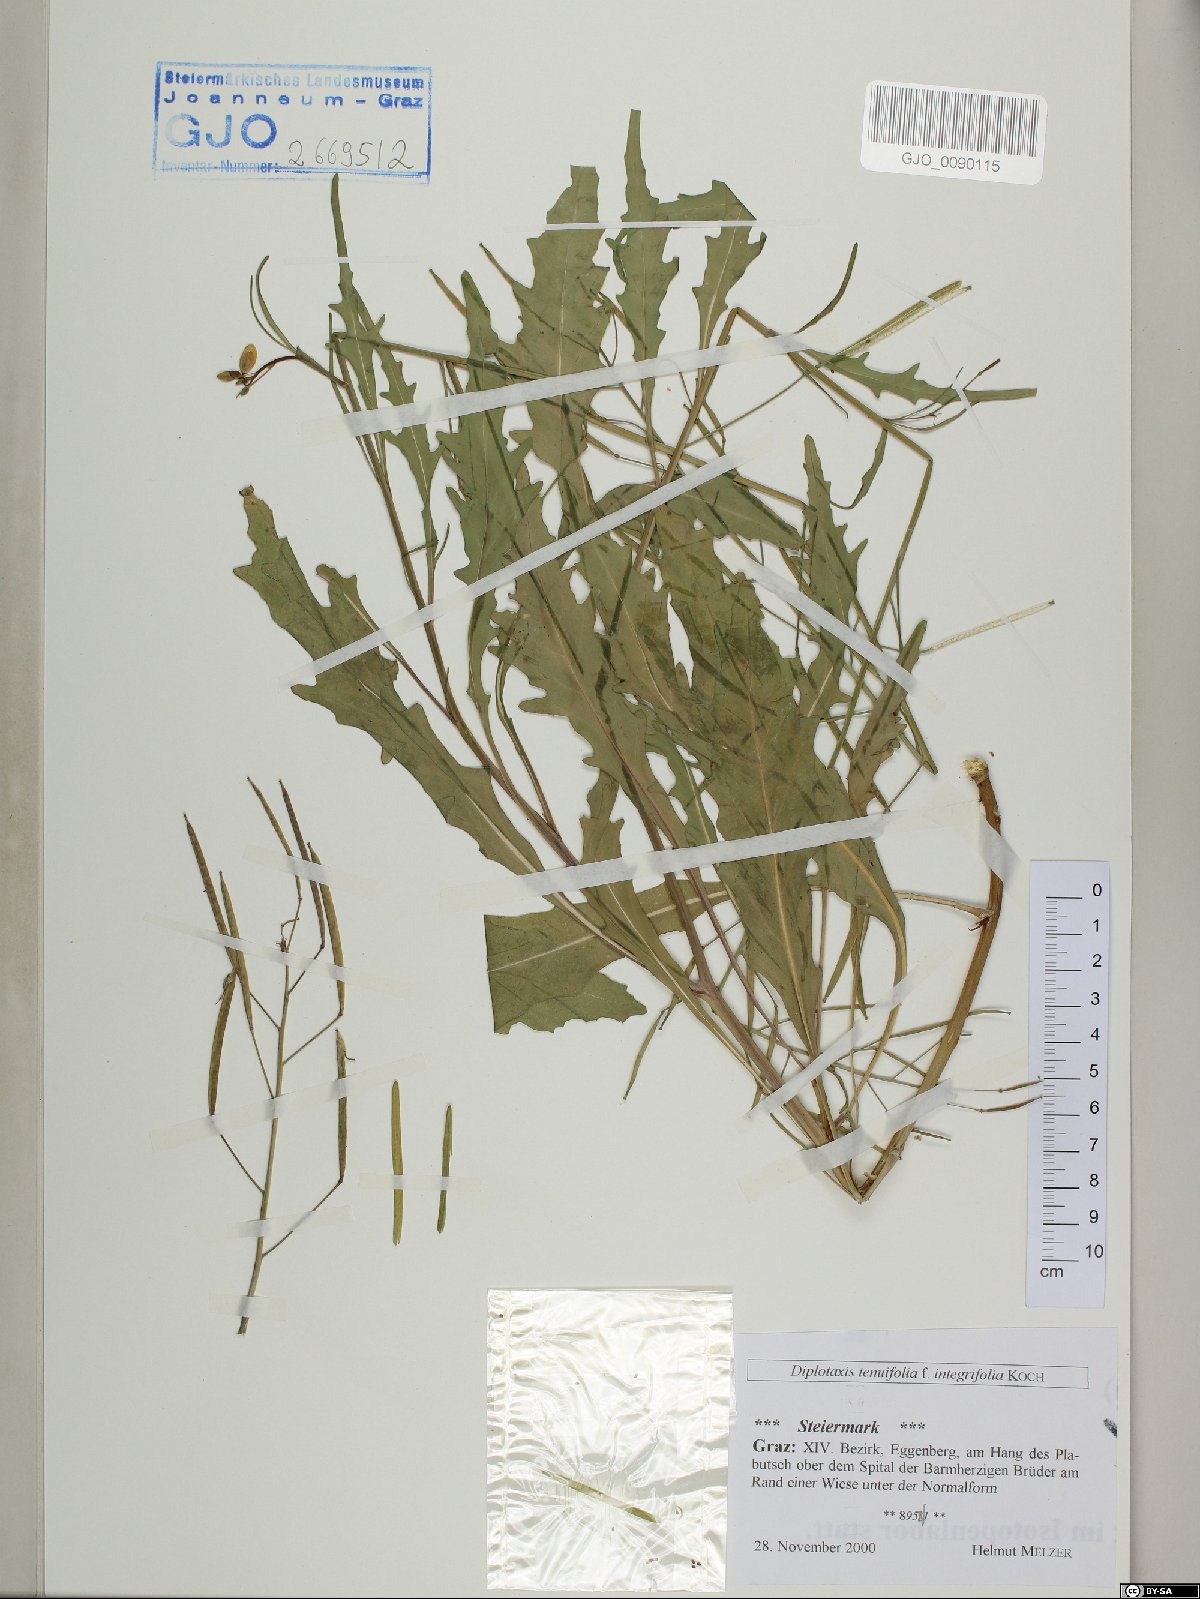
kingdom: Plantae
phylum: Tracheophyta
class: Magnoliopsida
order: Brassicales
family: Brassicaceae
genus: Diplotaxis
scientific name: Diplotaxis tenuifolia
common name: Perennial wall-rocket
